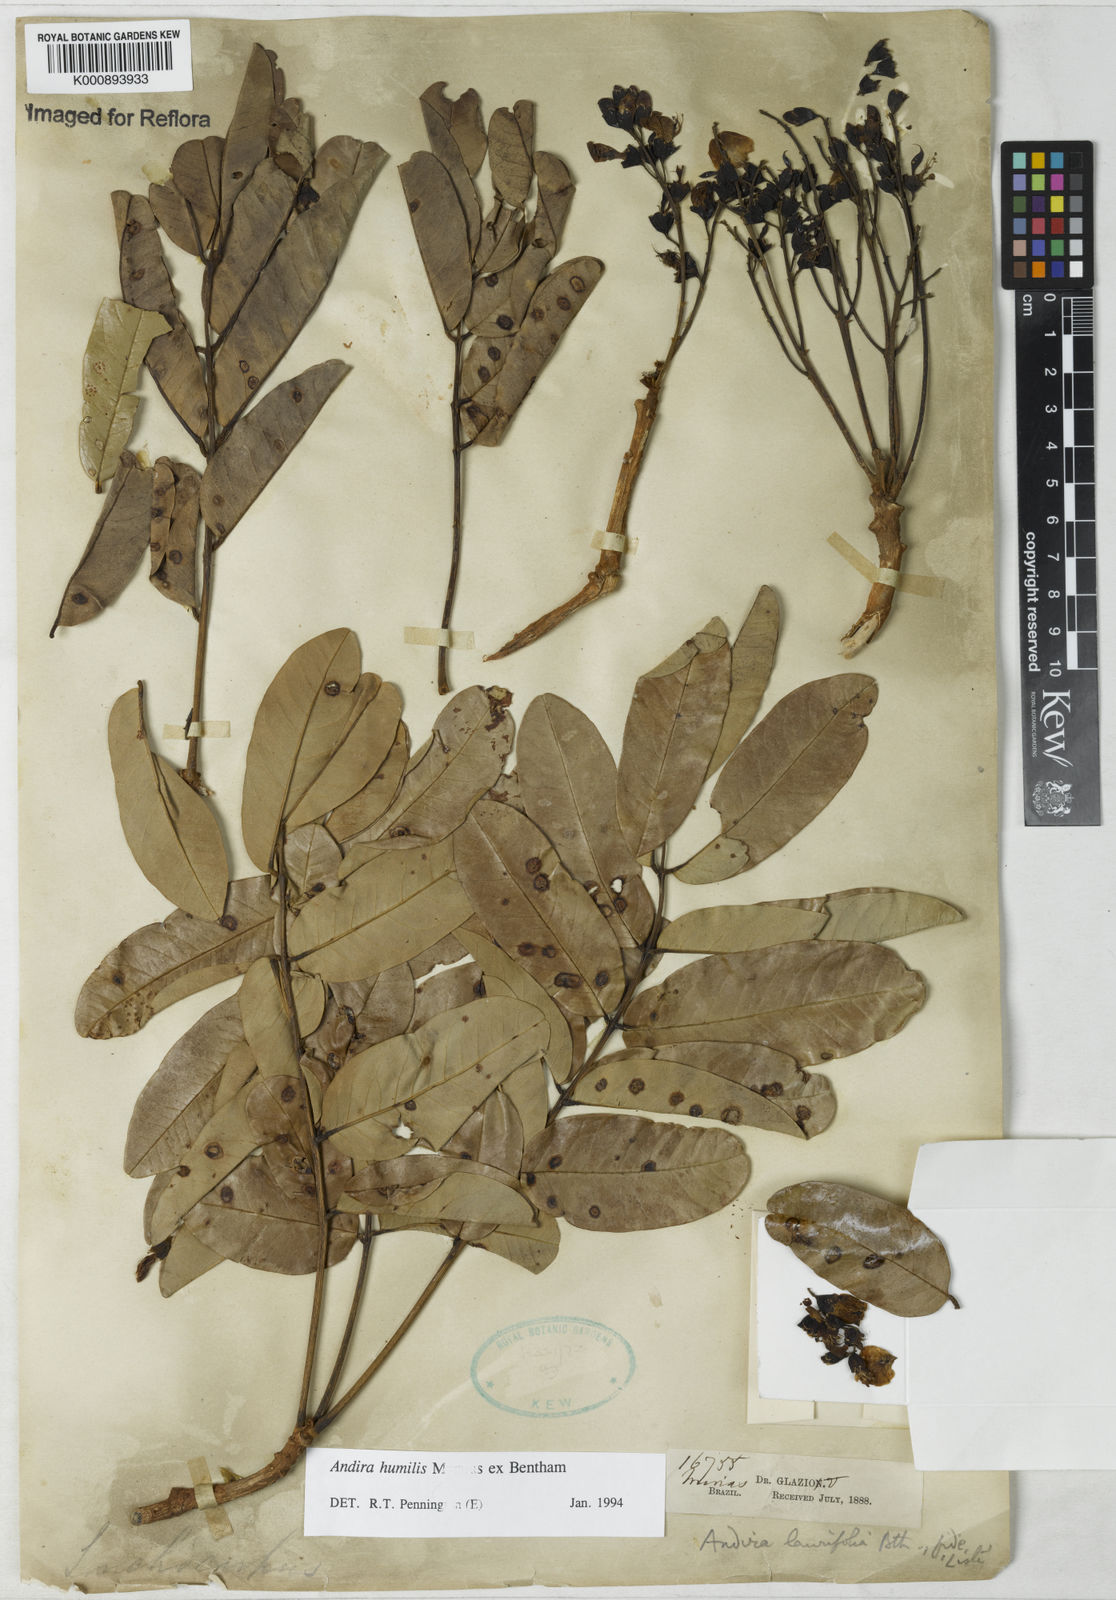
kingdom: Plantae
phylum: Tracheophyta
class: Magnoliopsida
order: Fabales
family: Fabaceae
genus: Andira
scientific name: Andira humilis
